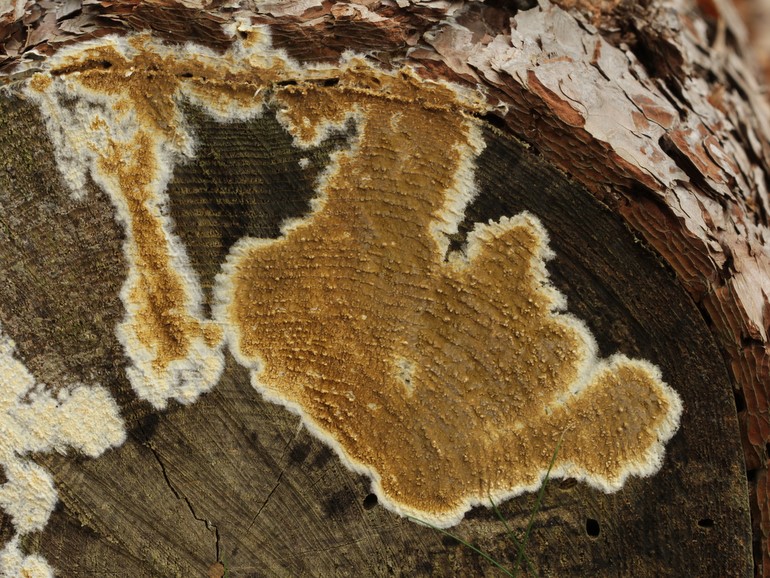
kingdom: Fungi
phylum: Basidiomycota
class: Agaricomycetes
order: Boletales
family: Coniophoraceae
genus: Coniophora
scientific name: Coniophora puteana
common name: gul tømmersvamp
